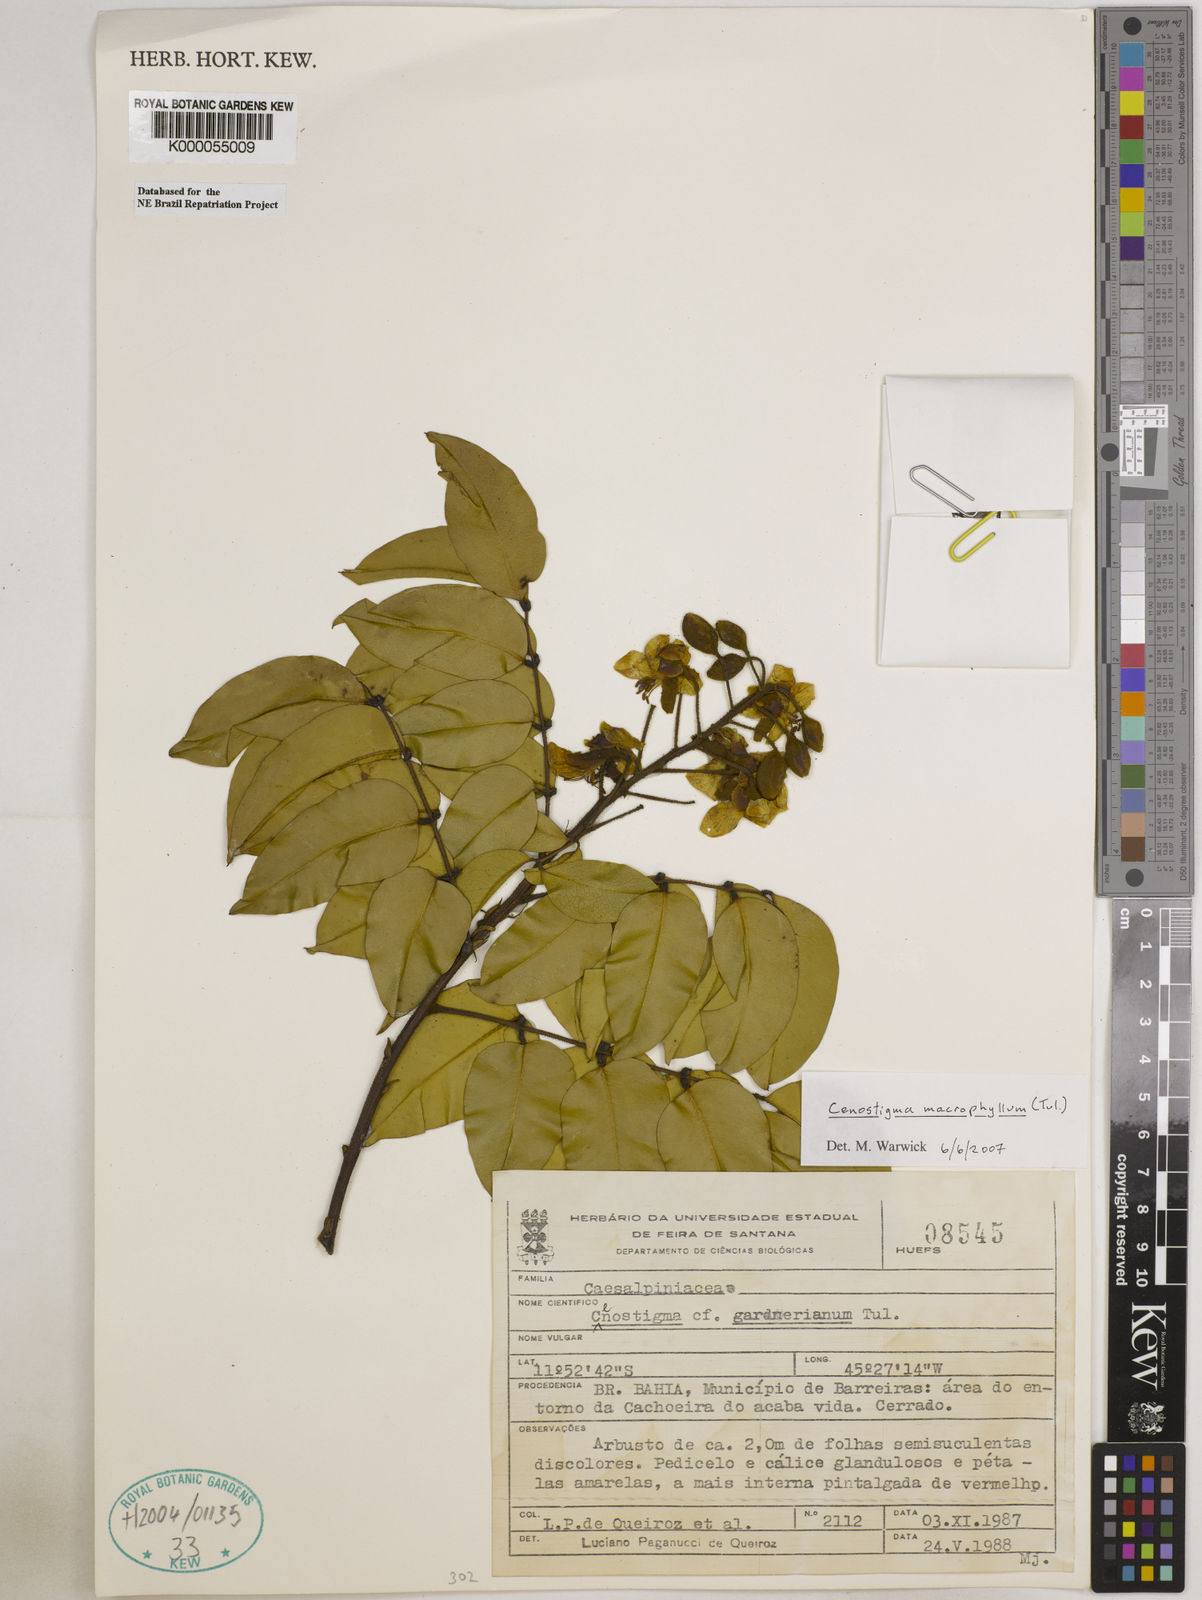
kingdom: Plantae
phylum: Tracheophyta
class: Magnoliopsida
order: Fabales
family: Fabaceae
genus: Cenostigma
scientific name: Cenostigma macrophyllum
